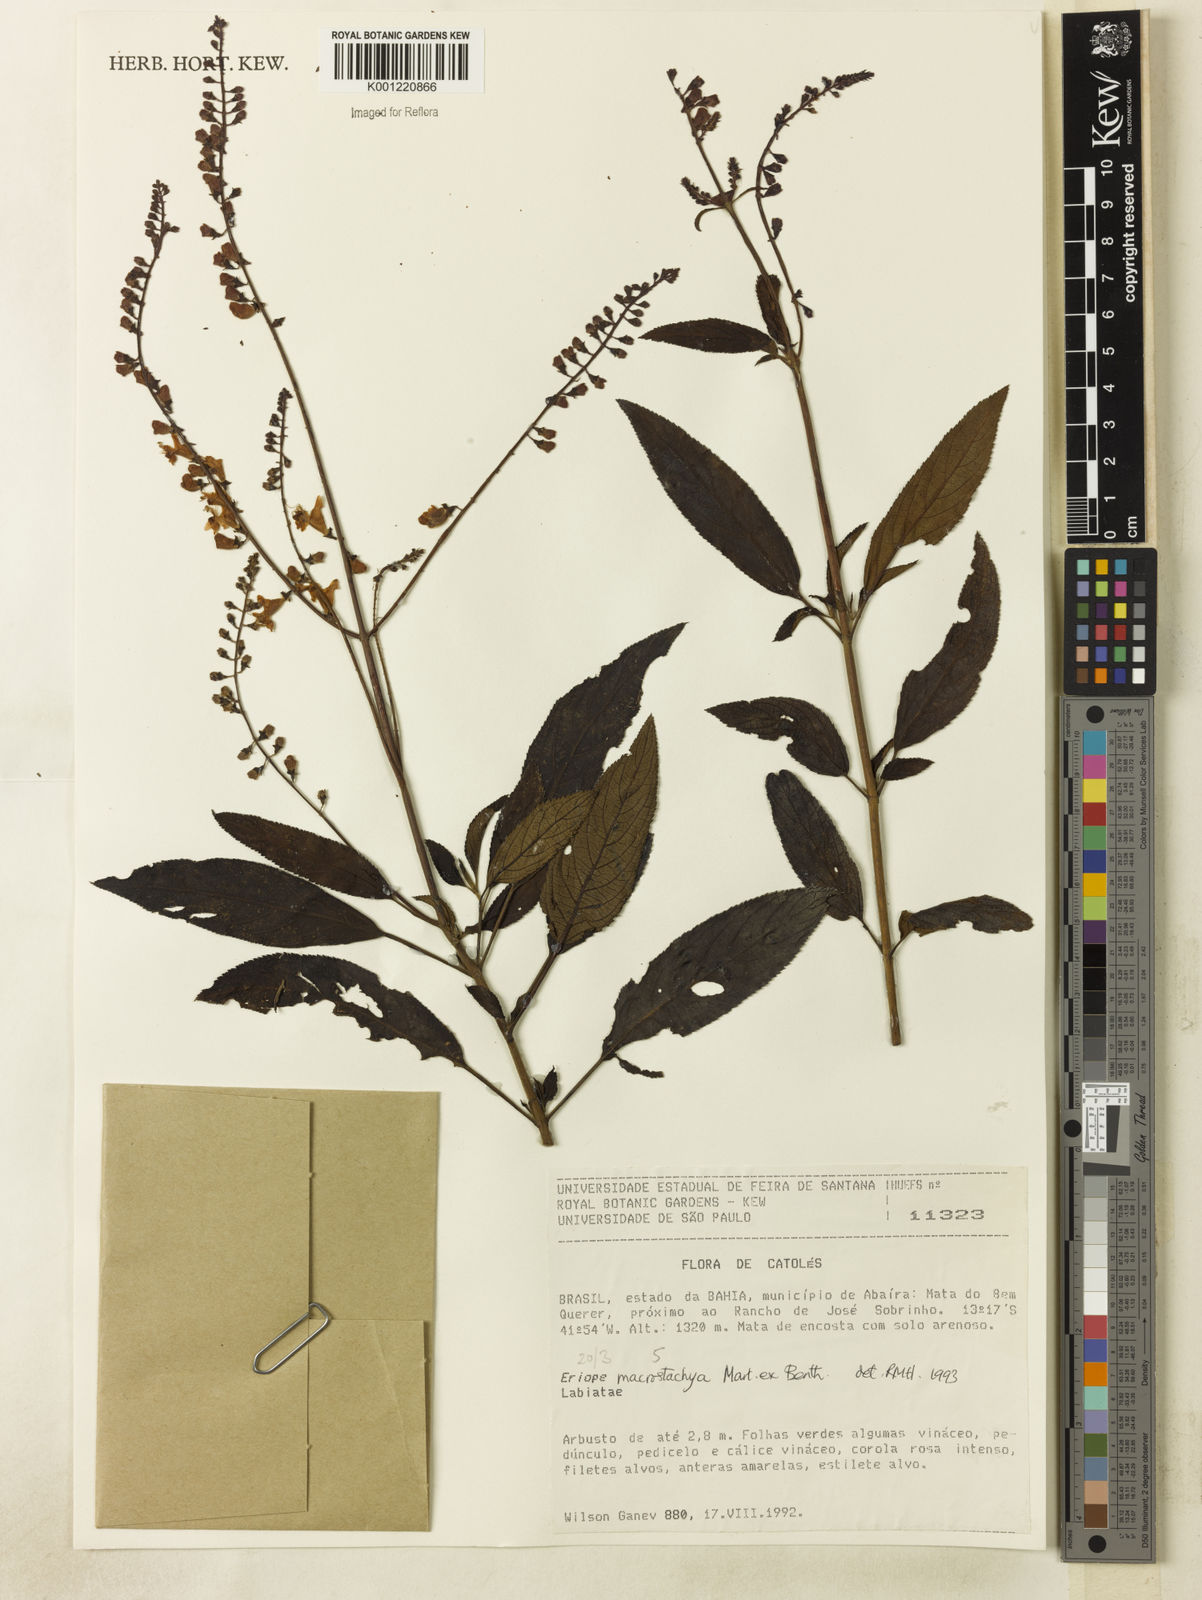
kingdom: Plantae
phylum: Tracheophyta
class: Magnoliopsida
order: Lamiales
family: Lamiaceae
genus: Eriope
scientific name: Eriope macrostachya
